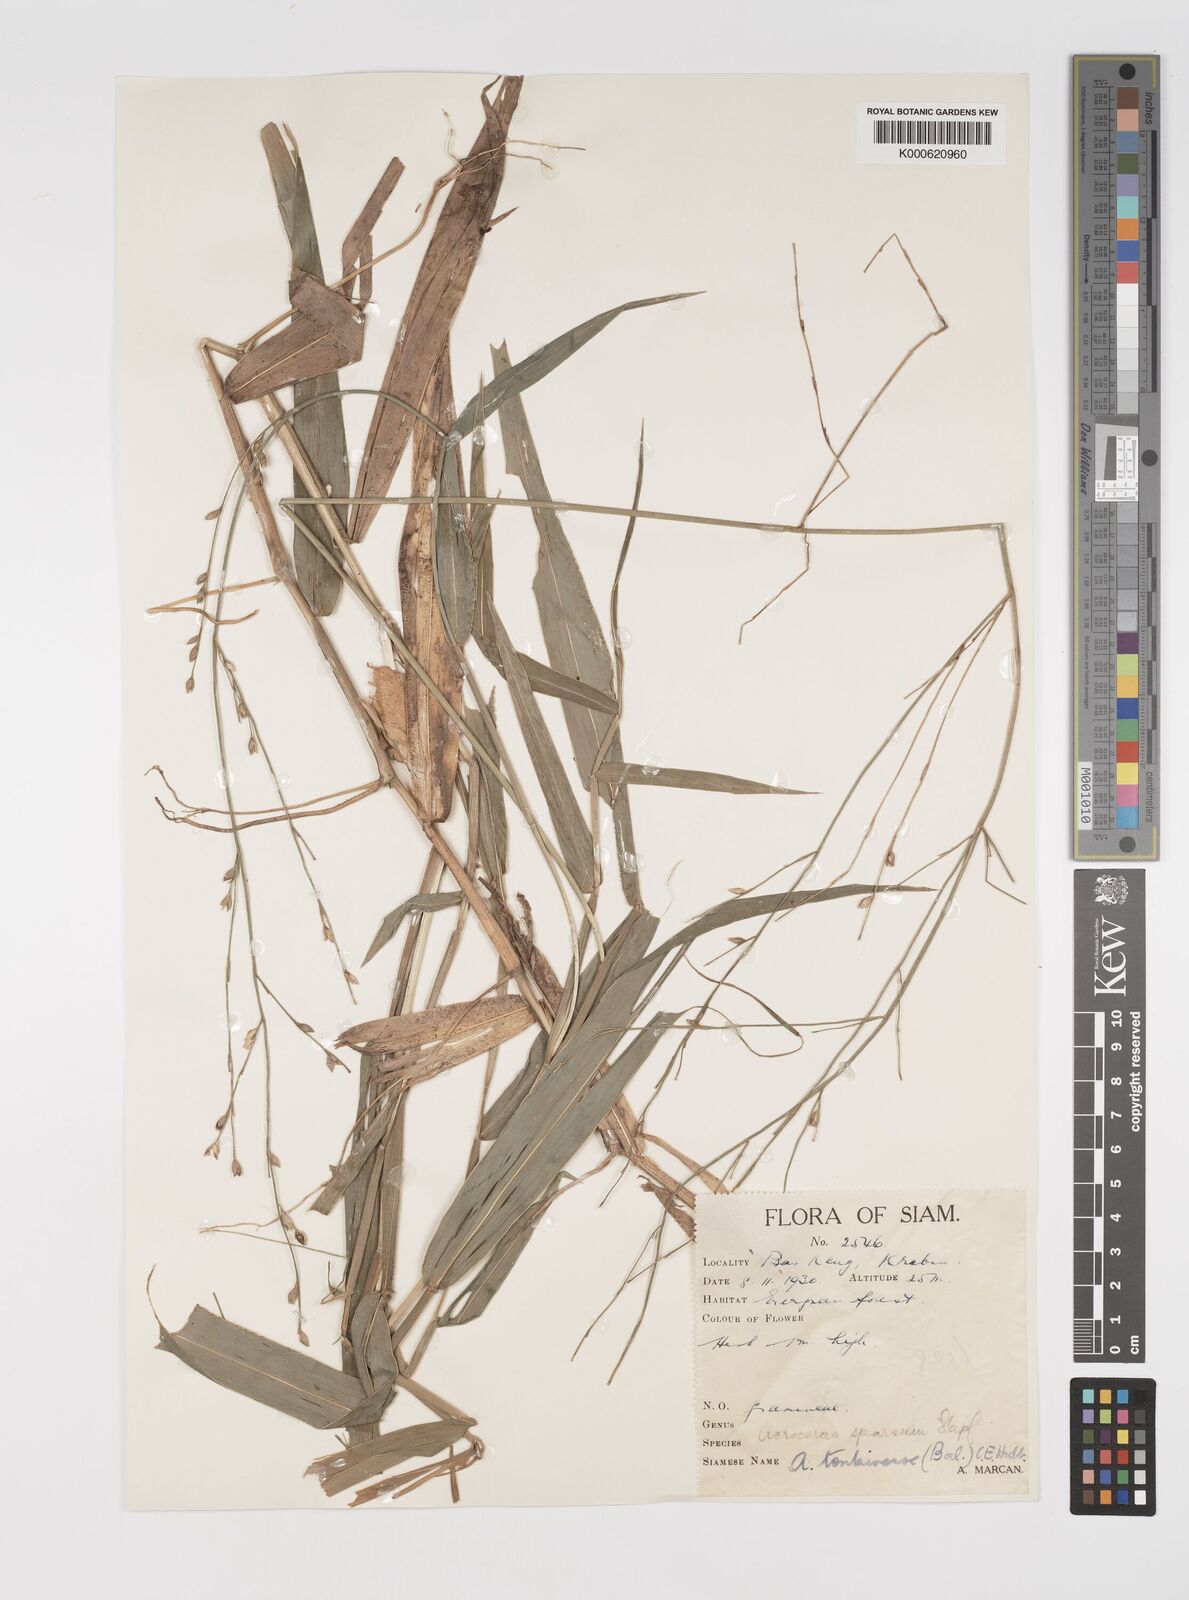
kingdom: Plantae
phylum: Tracheophyta
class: Liliopsida
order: Poales
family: Poaceae
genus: Acroceras
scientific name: Acroceras
